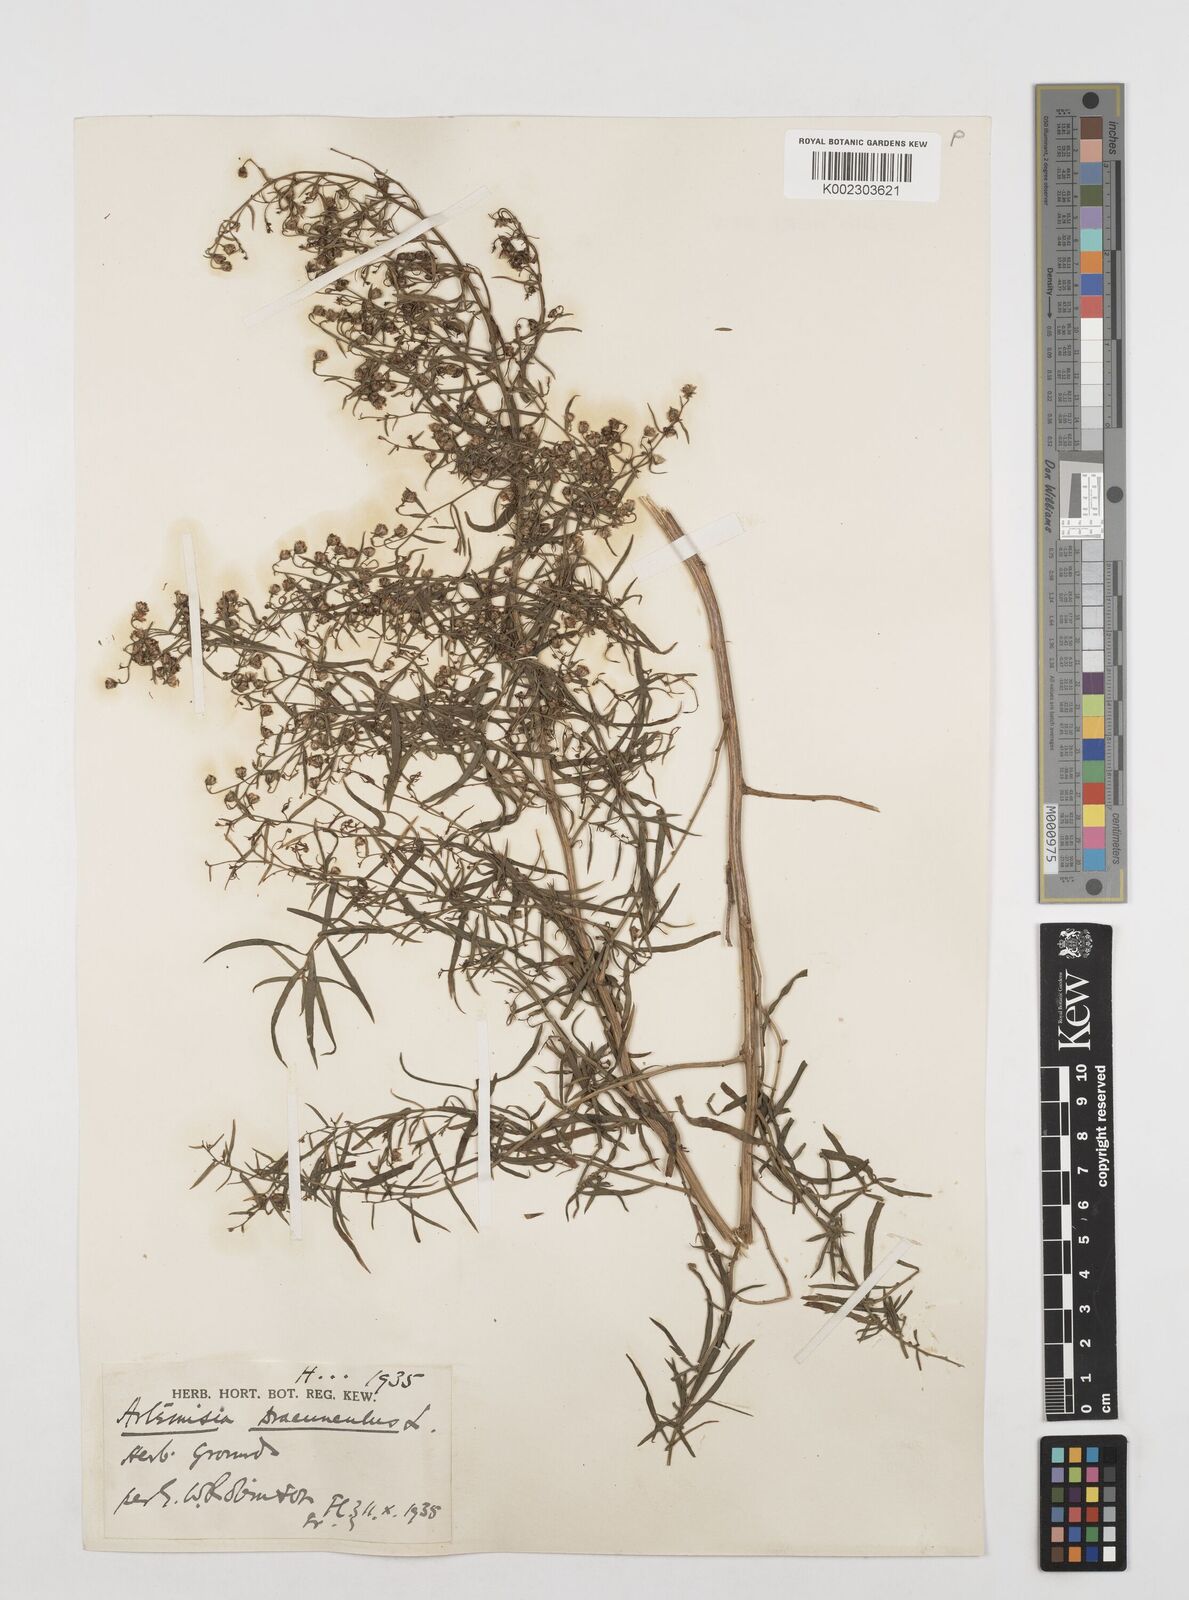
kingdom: Plantae
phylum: Tracheophyta
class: Magnoliopsida
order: Asterales
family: Asteraceae
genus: Artemisia
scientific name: Artemisia dracunculus
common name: Tarragon
